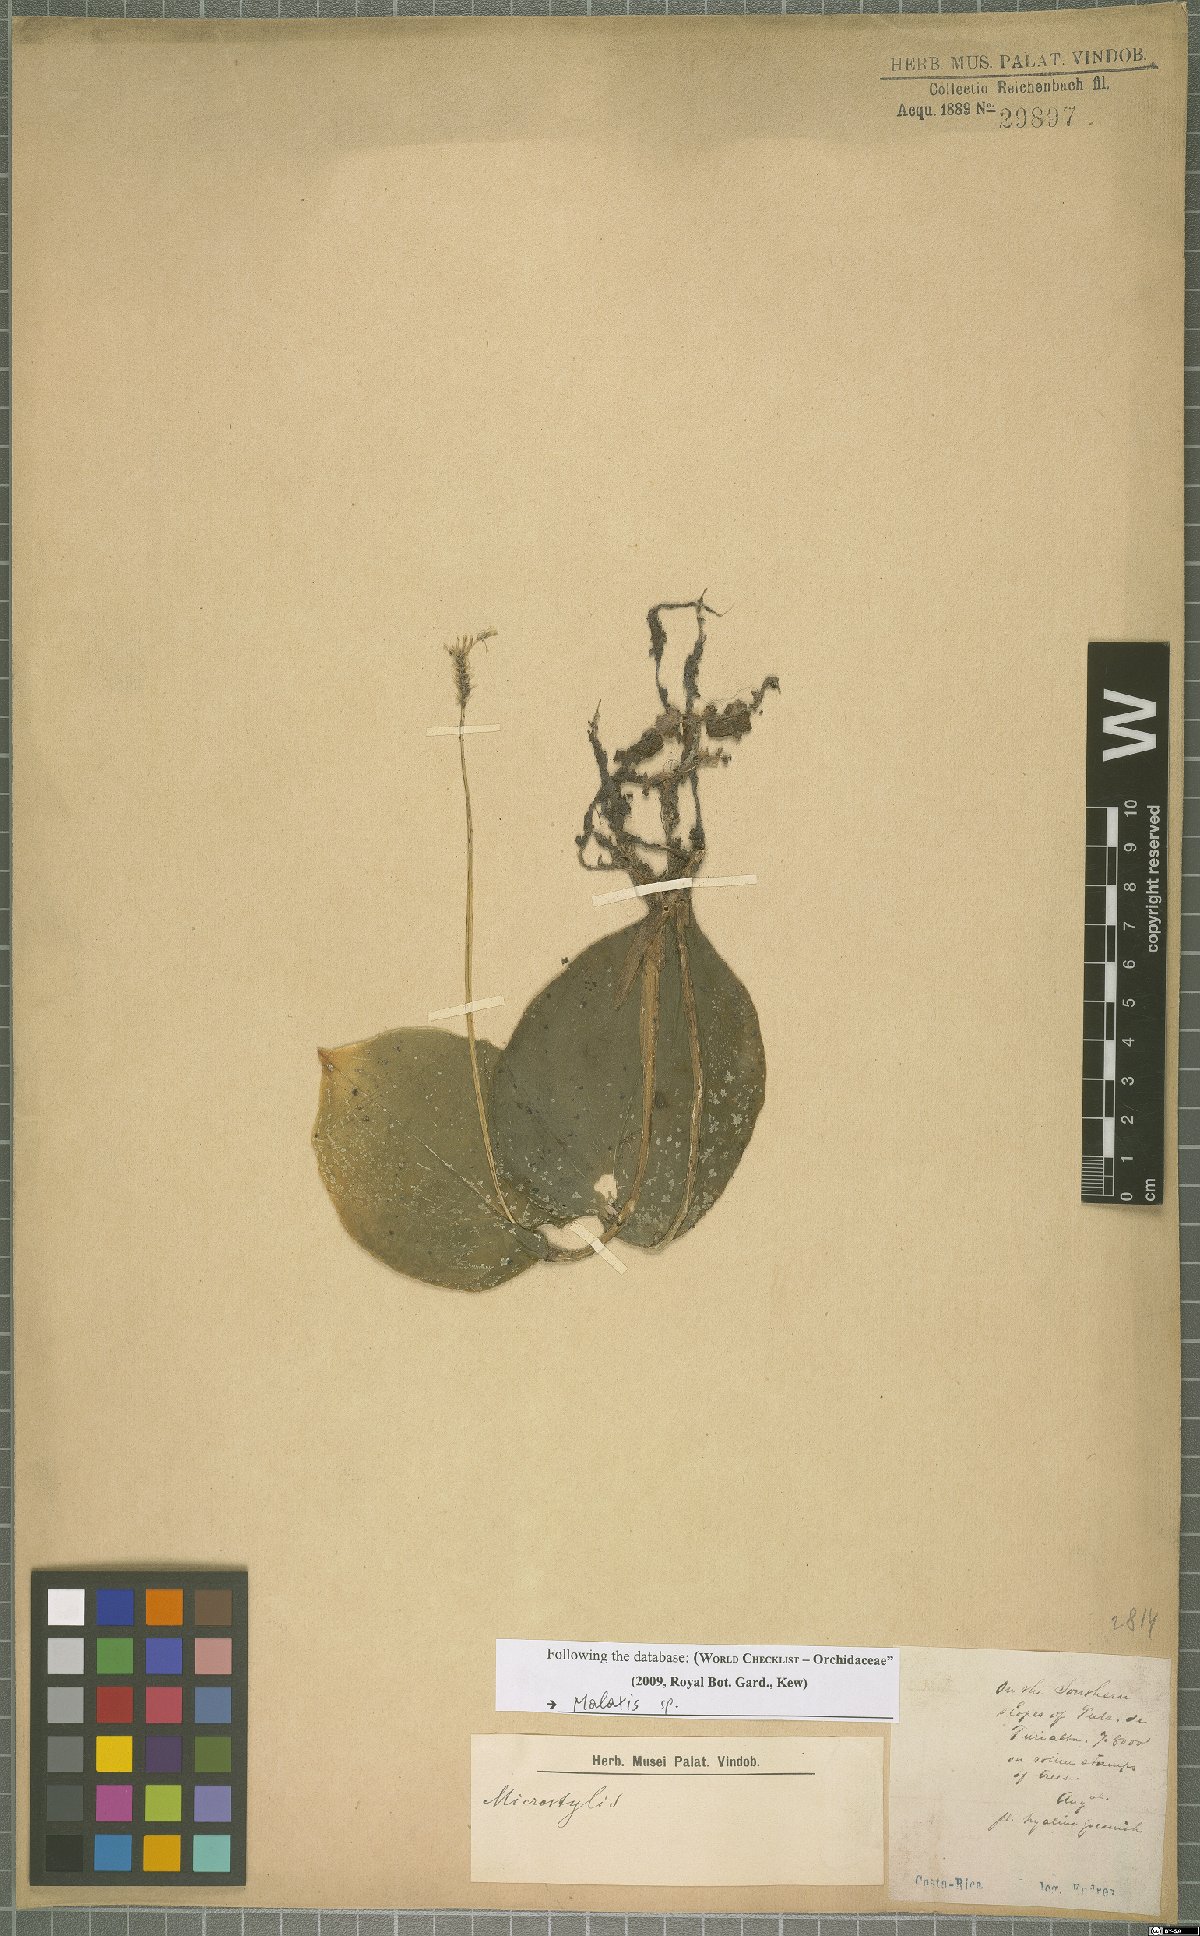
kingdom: Plantae
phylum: Tracheophyta
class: Liliopsida
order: Asparagales
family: Orchidaceae
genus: Malaxis
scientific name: Malaxis
